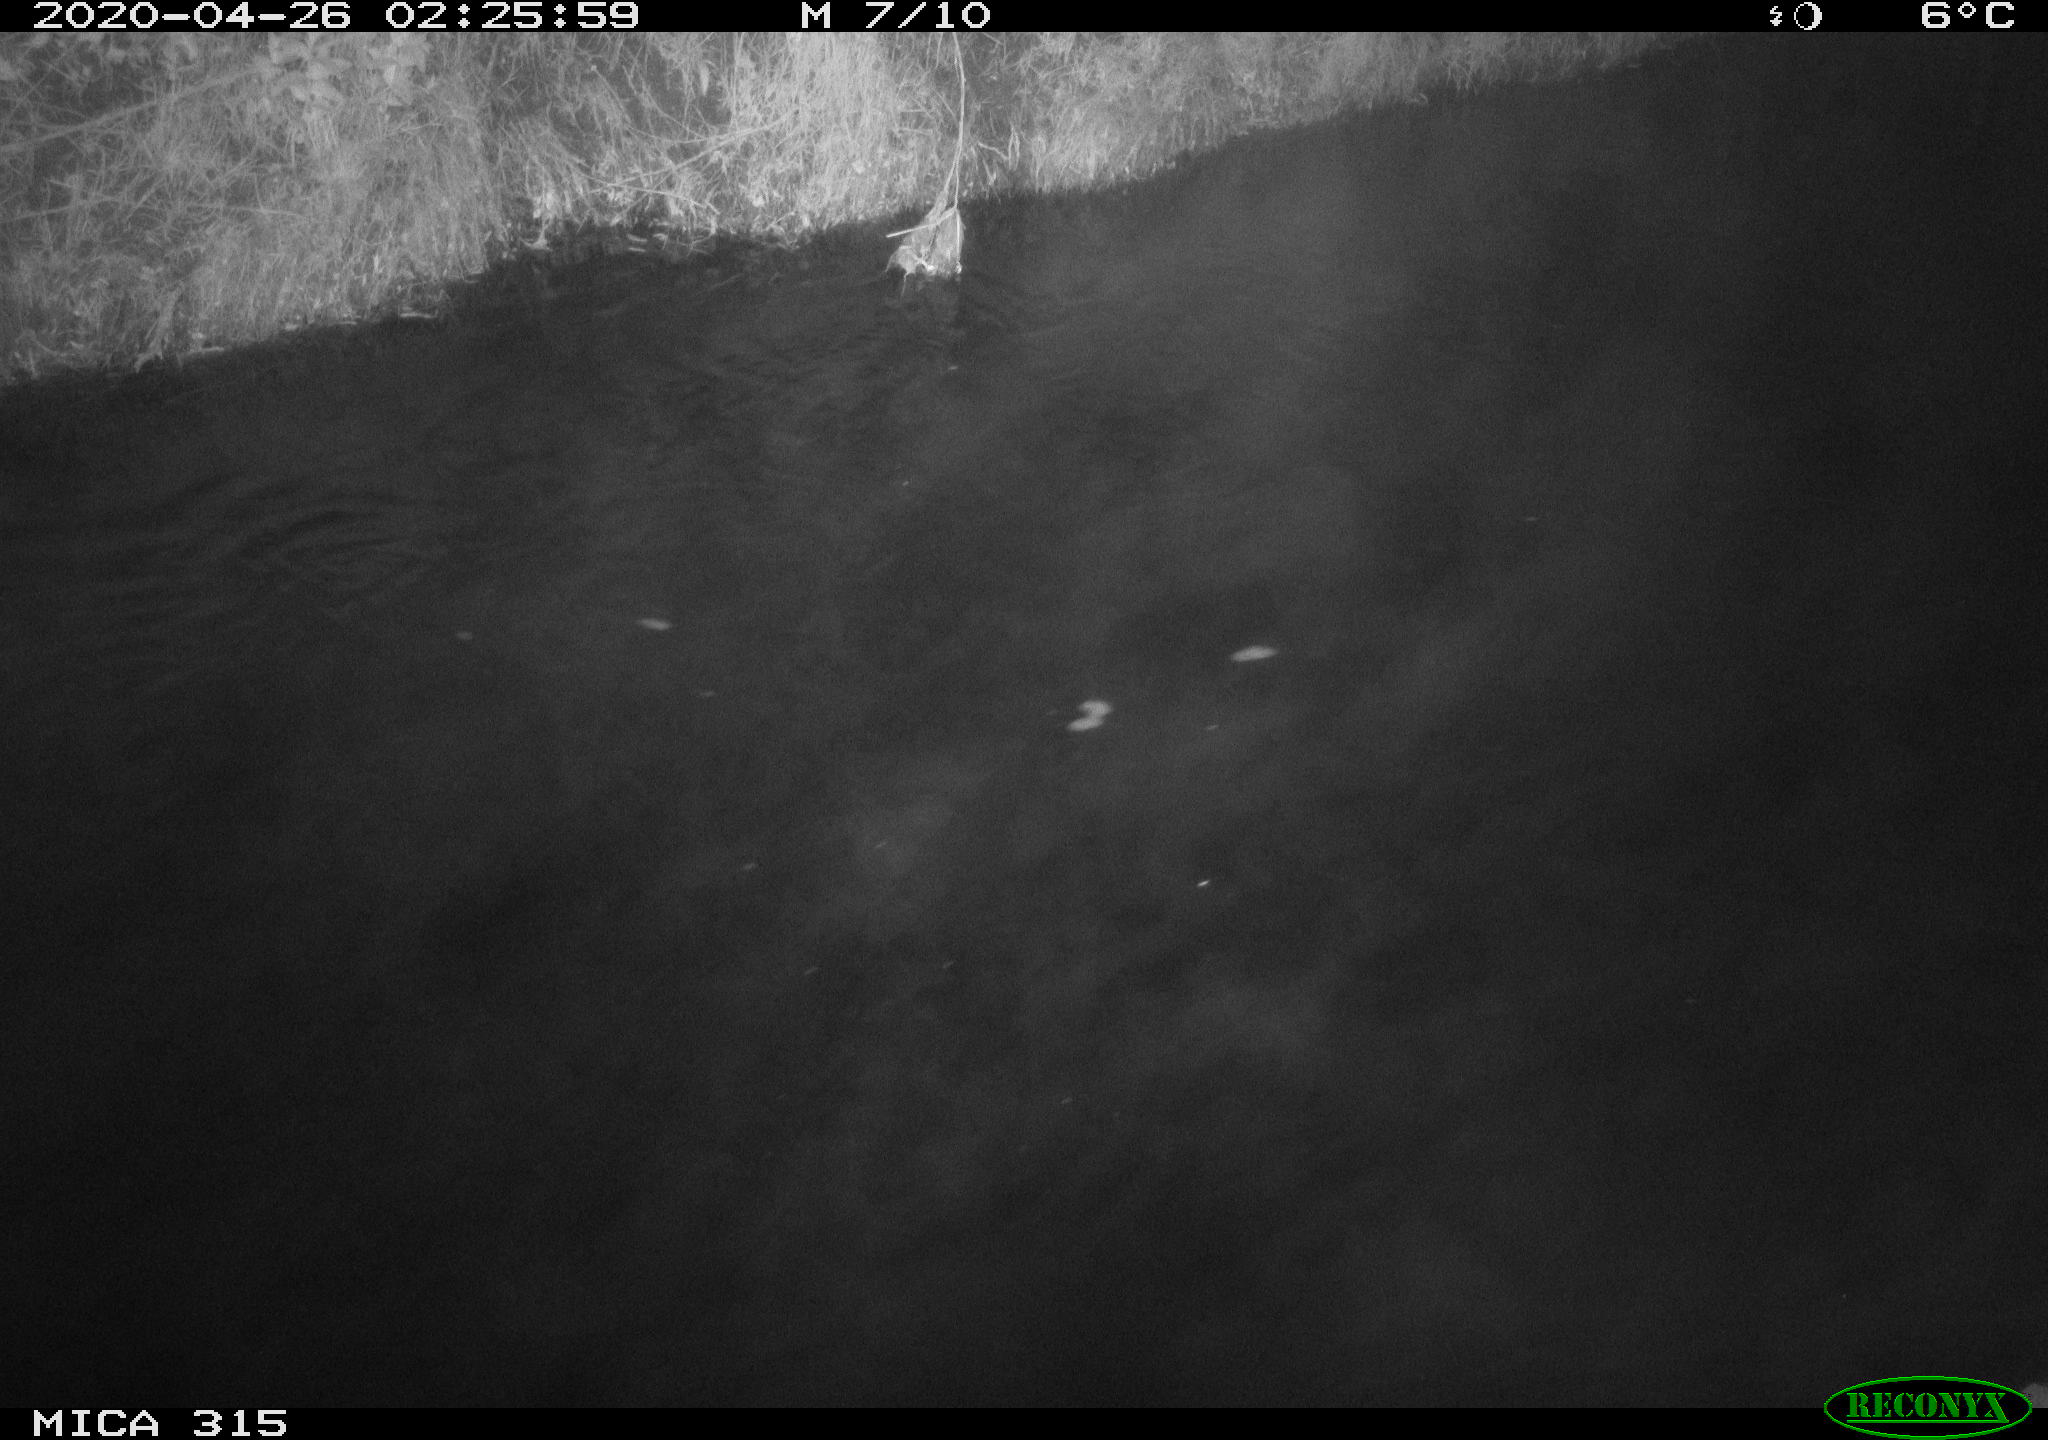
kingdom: Animalia
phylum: Chordata
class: Aves
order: Anseriformes
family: Anatidae
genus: Anas
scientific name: Anas platyrhynchos
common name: Mallard
